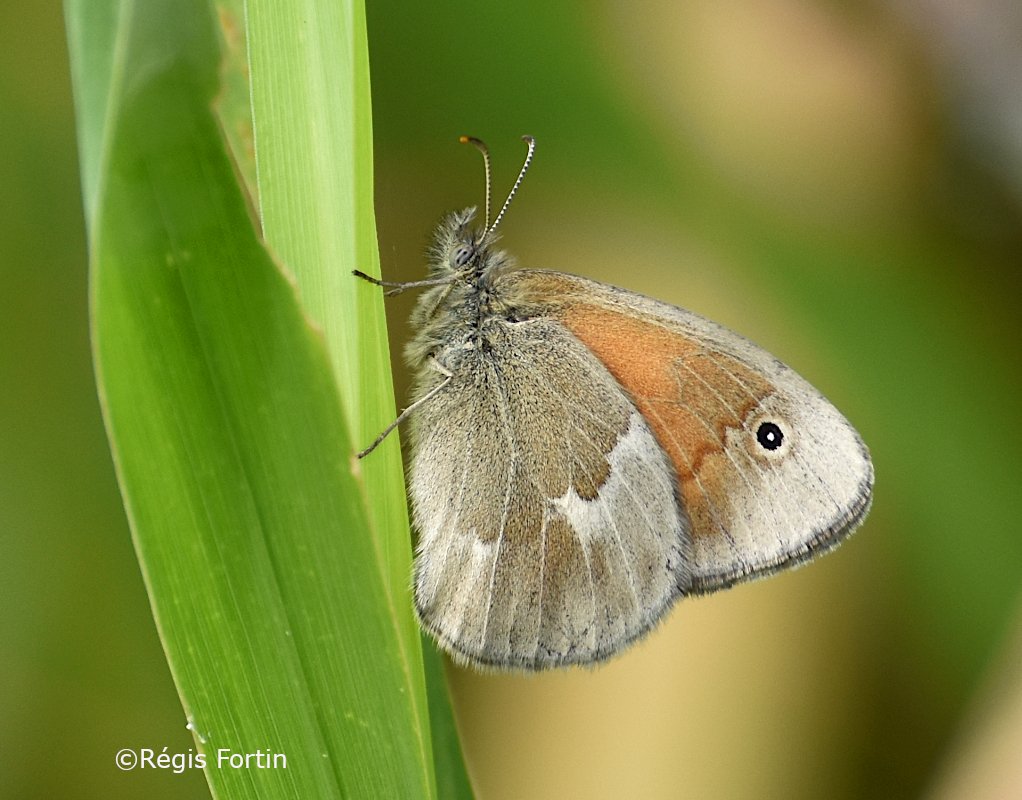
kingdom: Animalia
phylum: Arthropoda
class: Insecta
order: Lepidoptera
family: Nymphalidae
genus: Coenonympha
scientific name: Coenonympha tullia
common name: Large Heath
